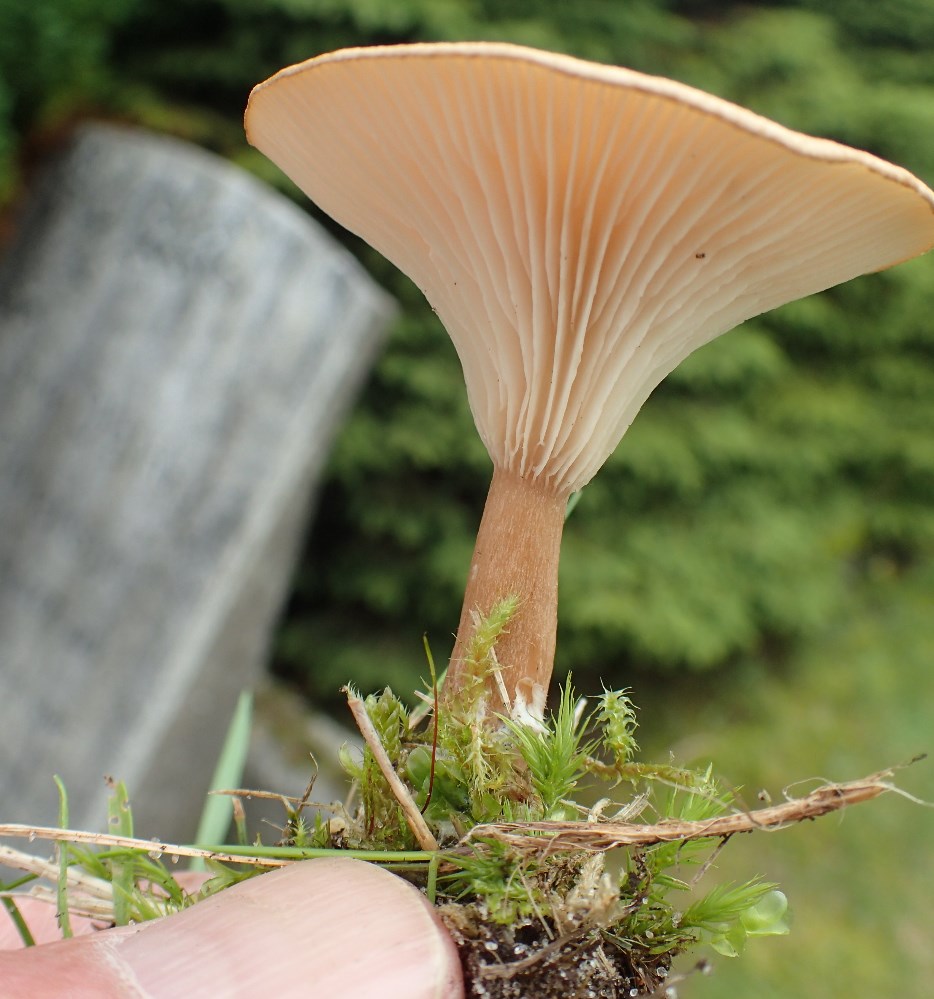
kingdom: Fungi
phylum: Basidiomycota
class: Agaricomycetes
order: Agaricales
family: Tricholomataceae
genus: Infundibulicybe
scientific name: Infundibulicybe squamulosa
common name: småskællet tragthat
